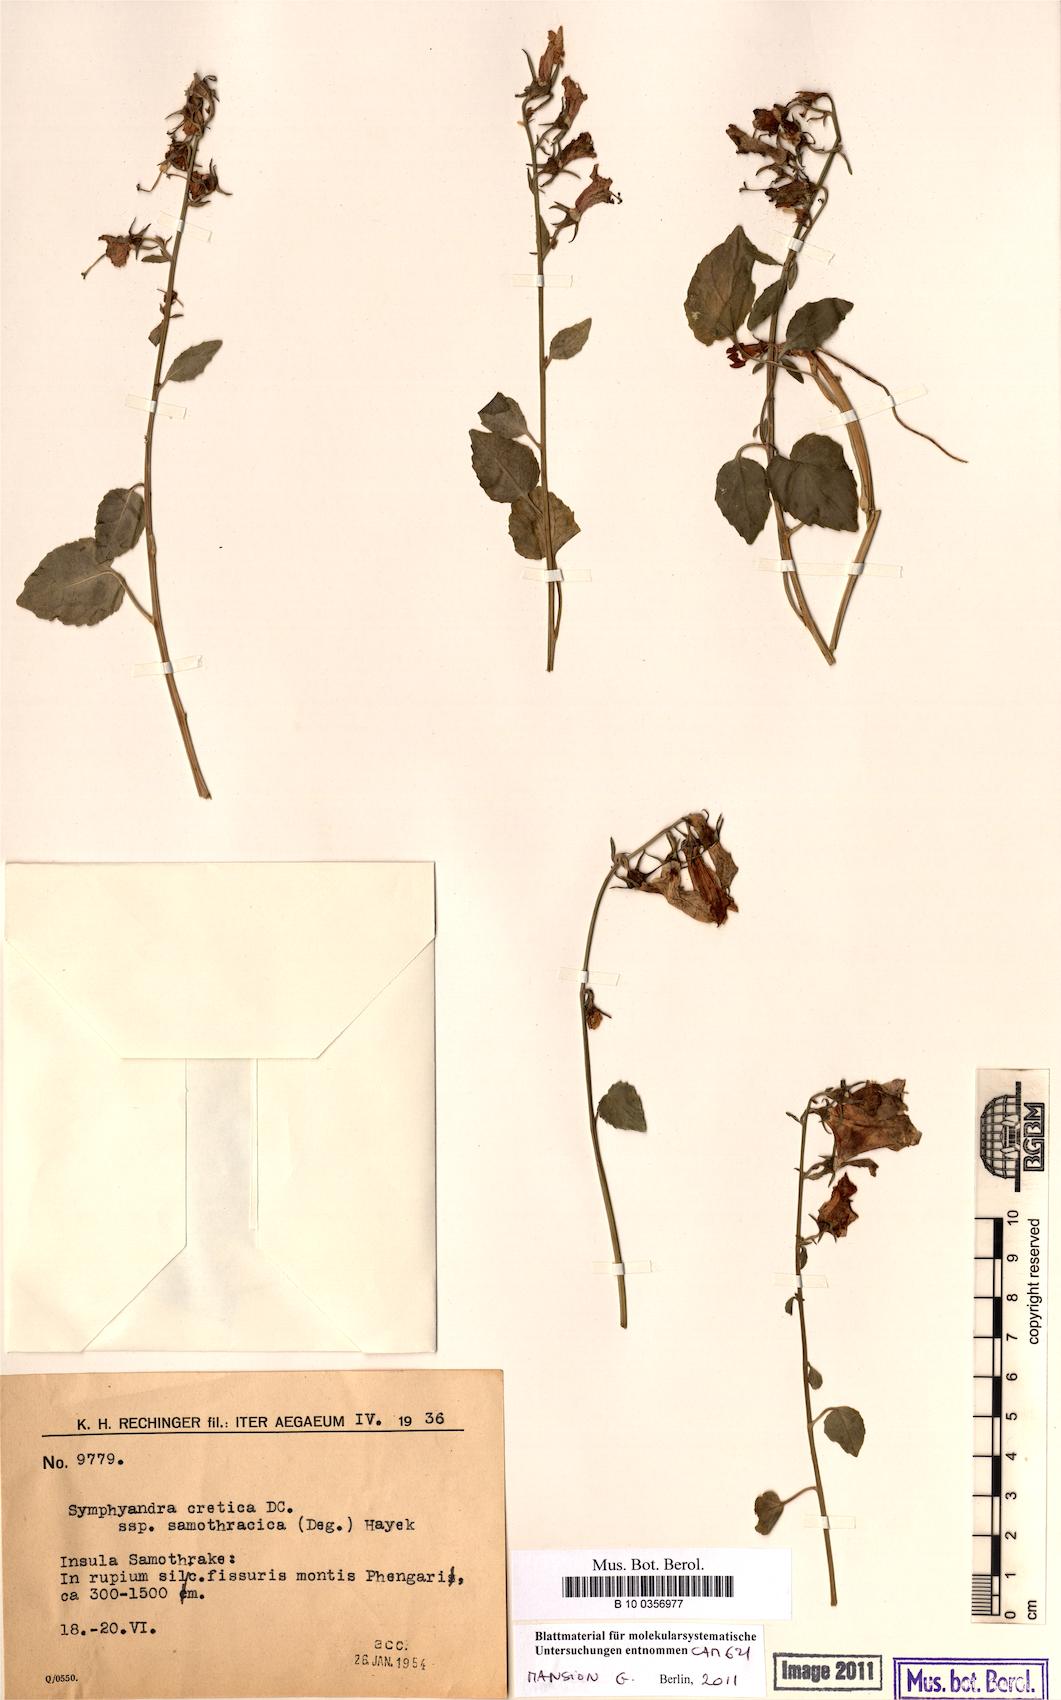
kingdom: Plantae
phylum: Tracheophyta
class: Magnoliopsida
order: Asterales
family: Campanulaceae
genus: Campanula
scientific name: Campanula samothracica
